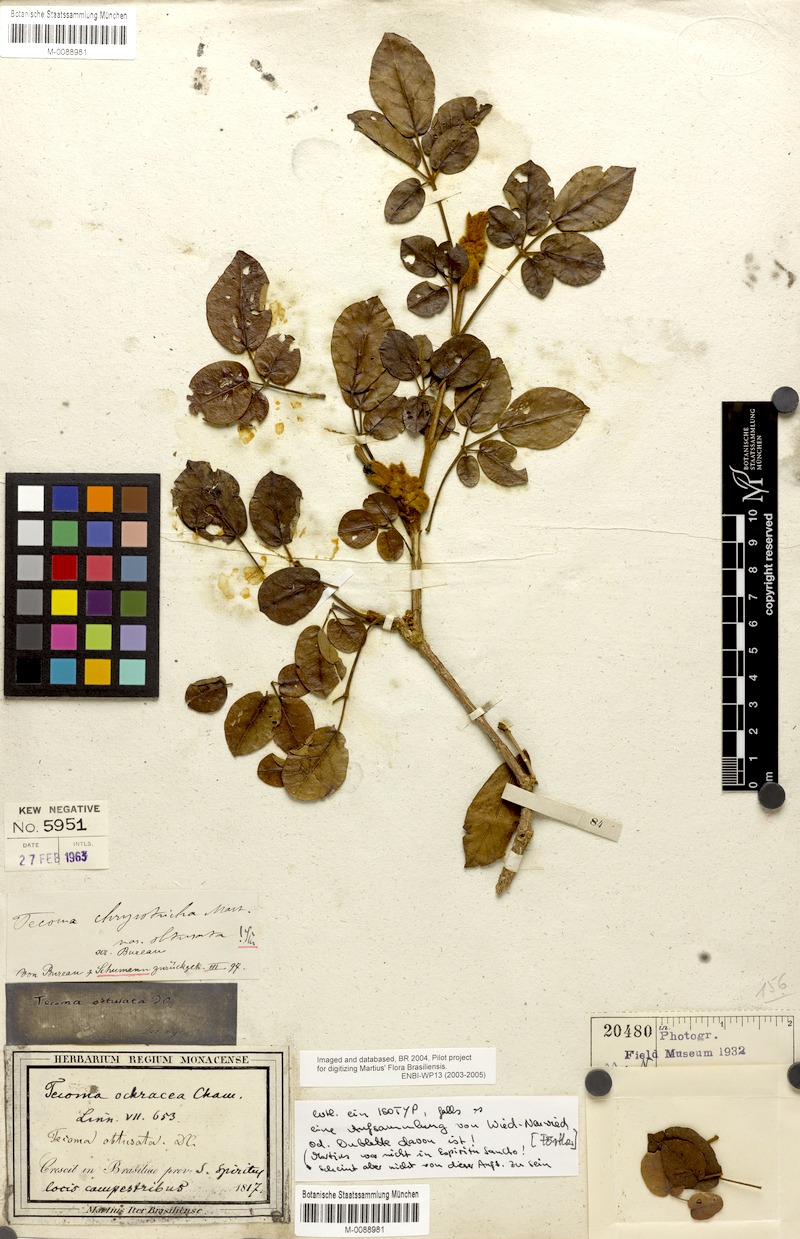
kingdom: Plantae
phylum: Tracheophyta
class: Magnoliopsida
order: Lamiales
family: Bignoniaceae
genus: Handroanthus
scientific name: Handroanthus chrysotrichus
